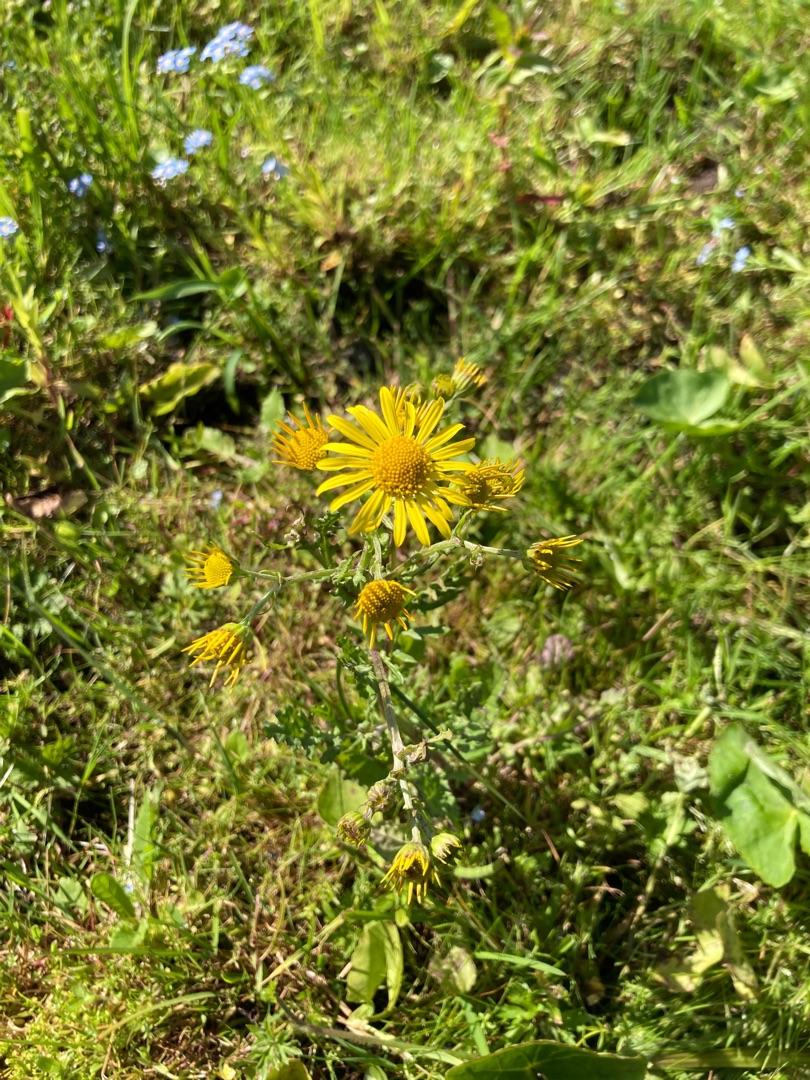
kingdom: Plantae
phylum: Tracheophyta
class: Magnoliopsida
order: Asterales
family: Asteraceae
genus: Jacobaea
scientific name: Jacobaea vulgaris
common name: Eng-brandbæger
